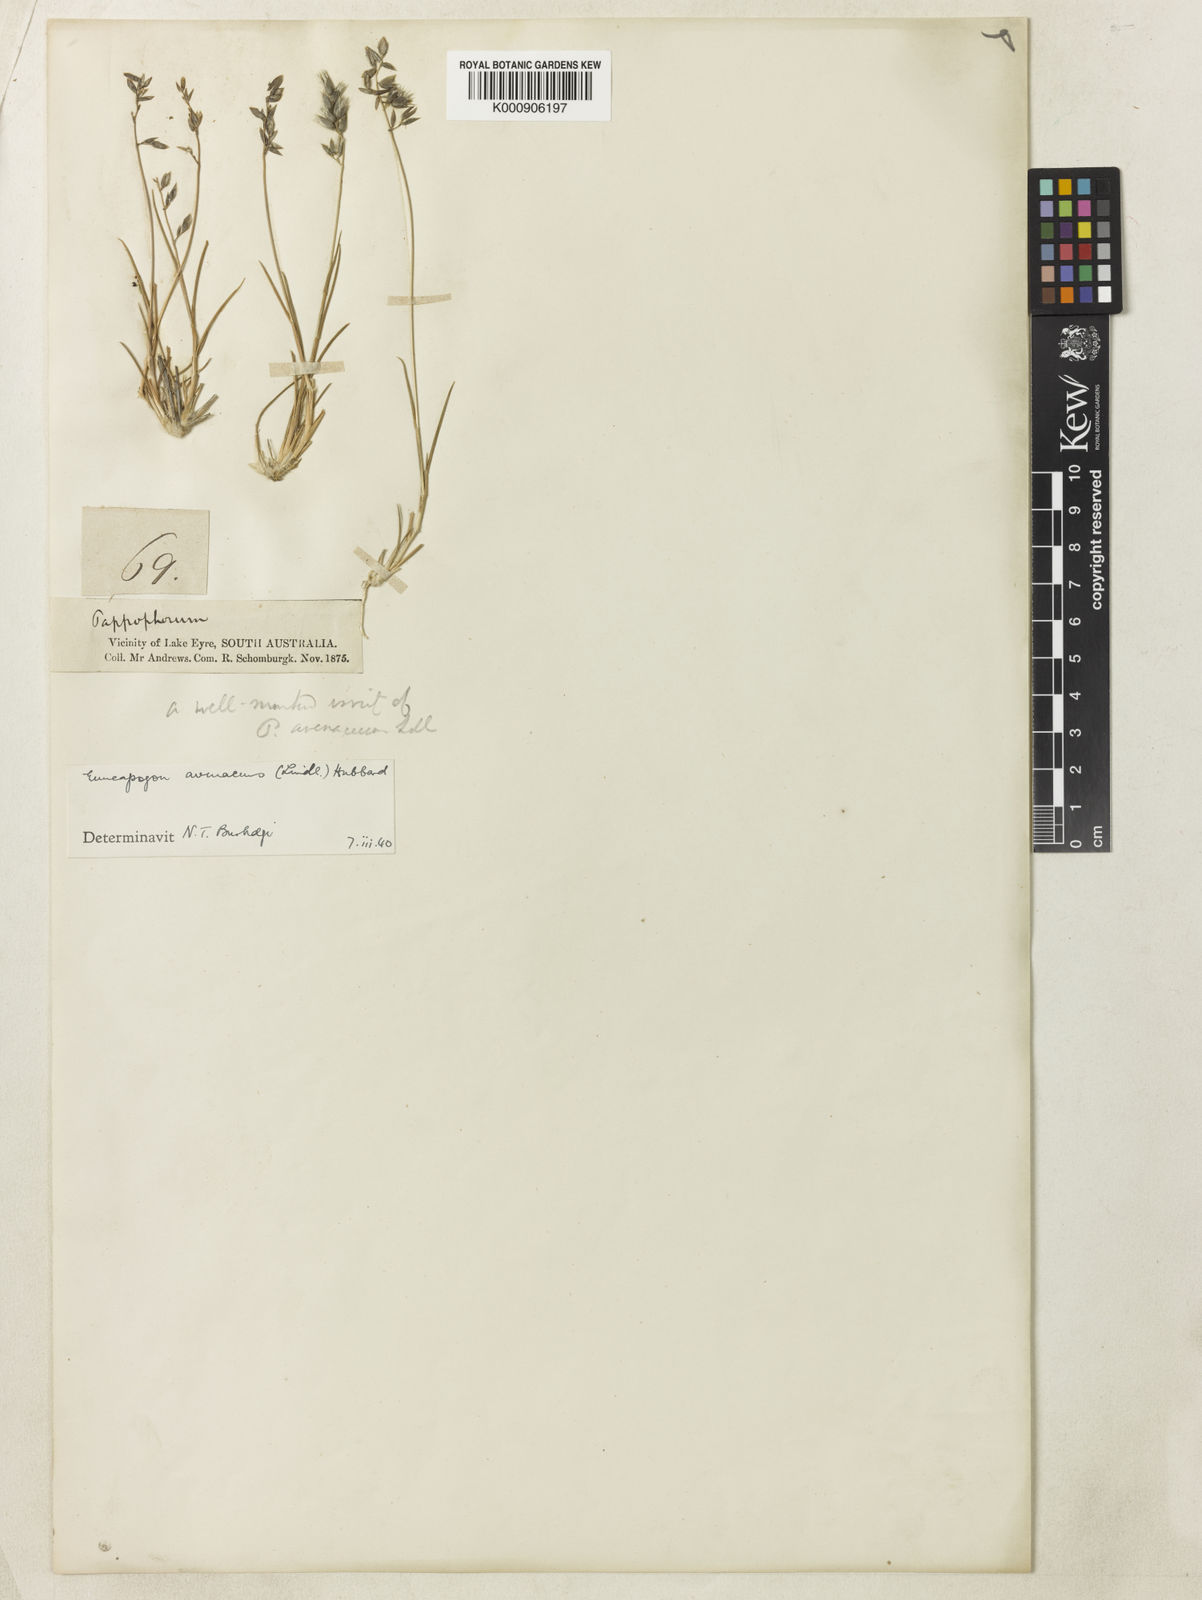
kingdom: Plantae
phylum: Tracheophyta
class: Liliopsida
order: Poales
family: Poaceae
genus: Enneapogon
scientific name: Enneapogon avenaceus
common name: Hairy oat grass
